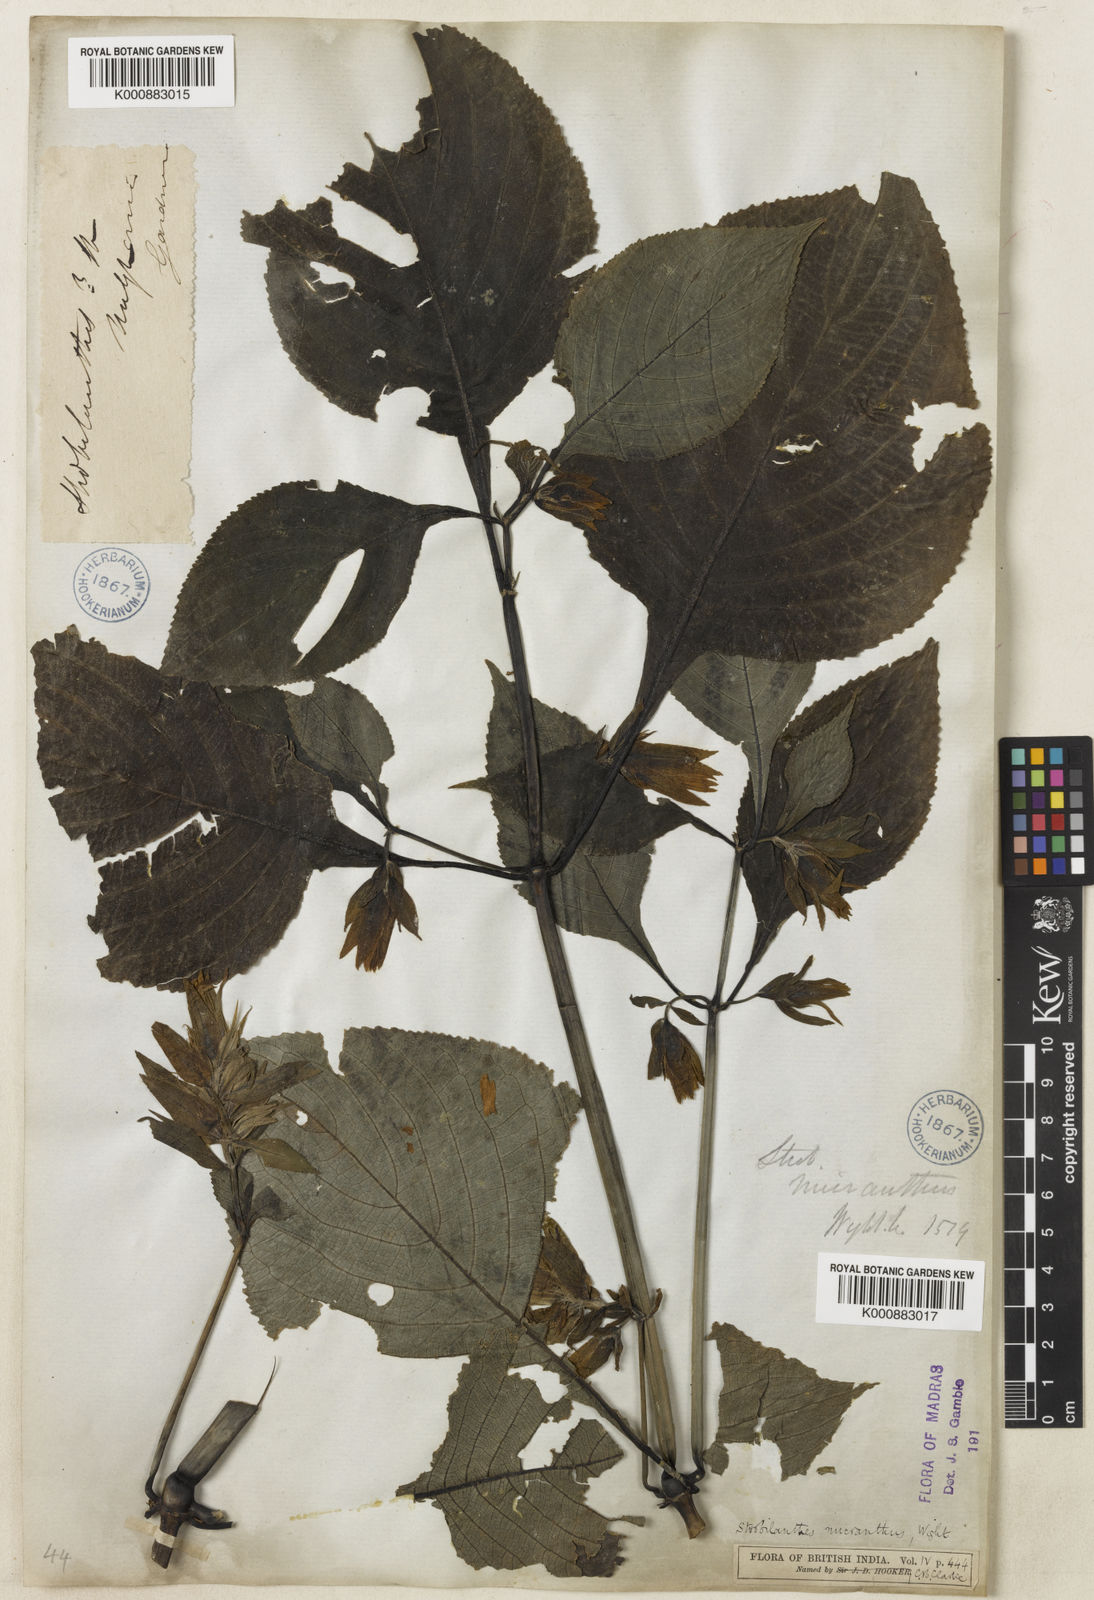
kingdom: Plantae
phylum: Tracheophyta
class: Magnoliopsida
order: Lamiales
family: Acanthaceae
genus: Strobilanthes
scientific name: Strobilanthes micrantha
